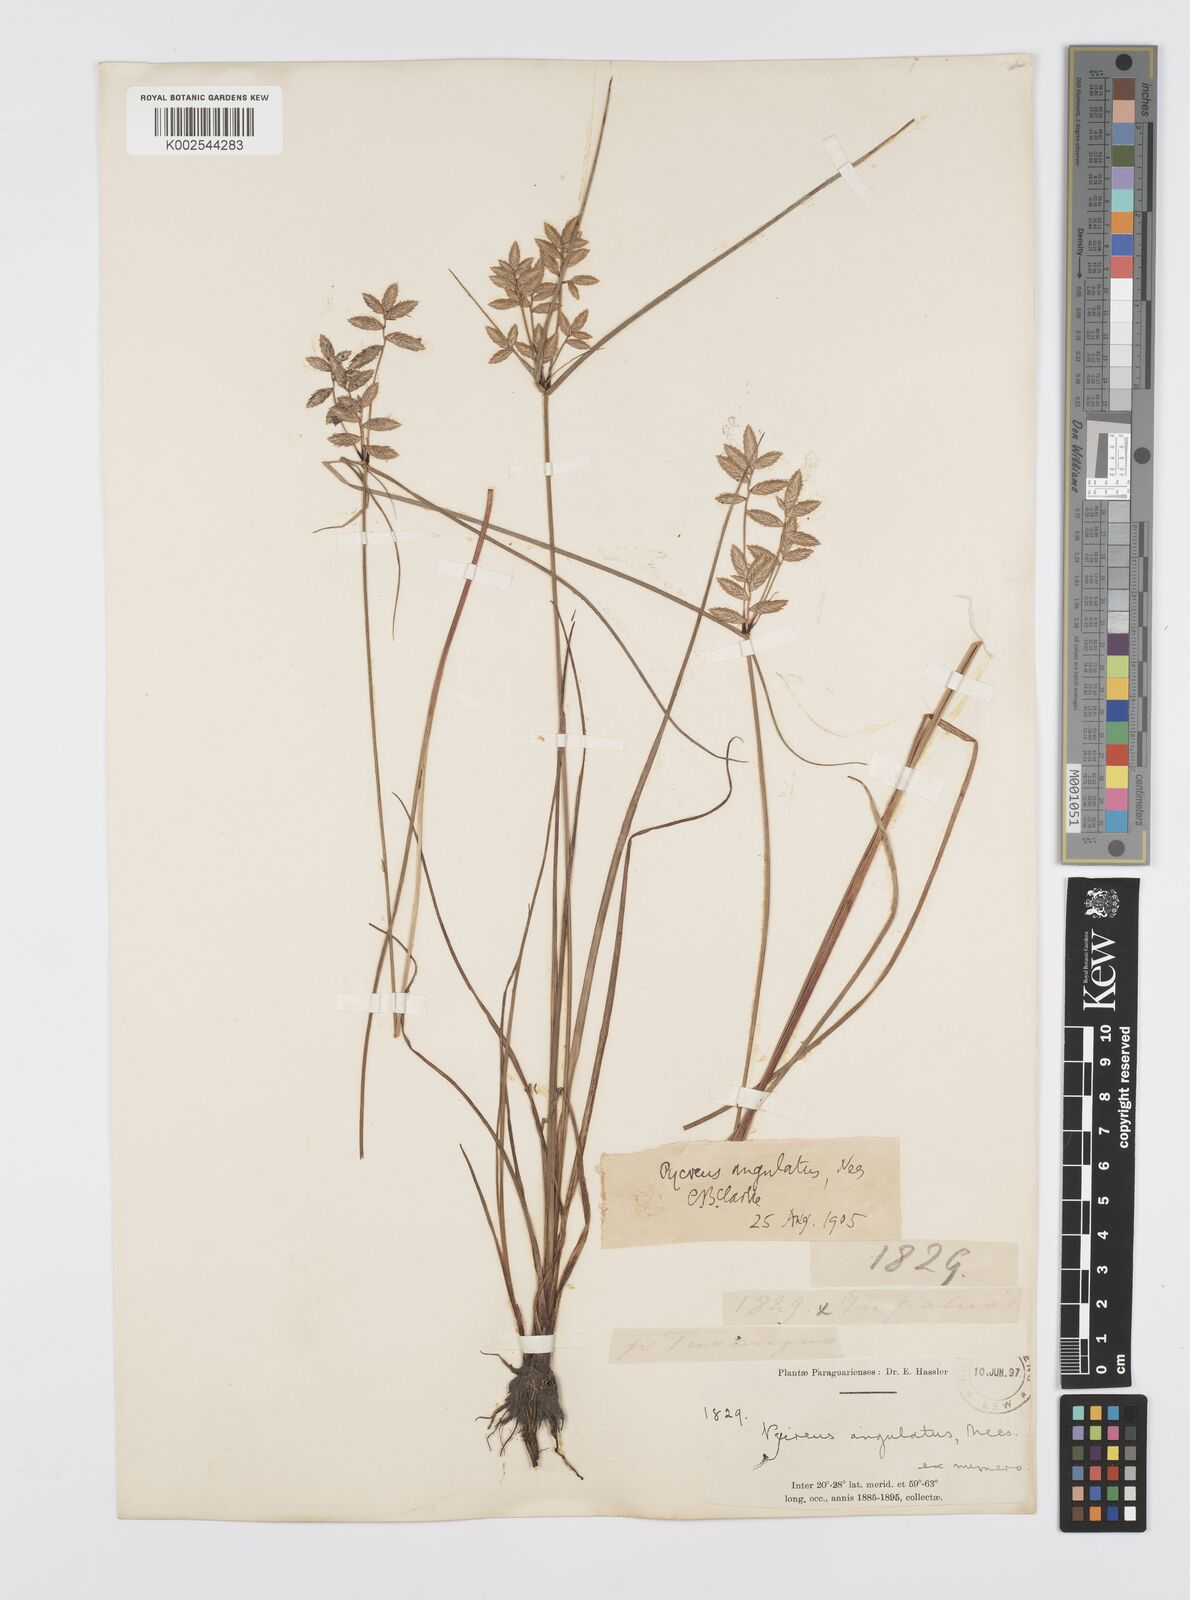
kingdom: Plantae
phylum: Tracheophyta
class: Liliopsida
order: Poales
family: Cyperaceae
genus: Cyperus
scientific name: Cyperus unioloides
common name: Uniola flatsedge
